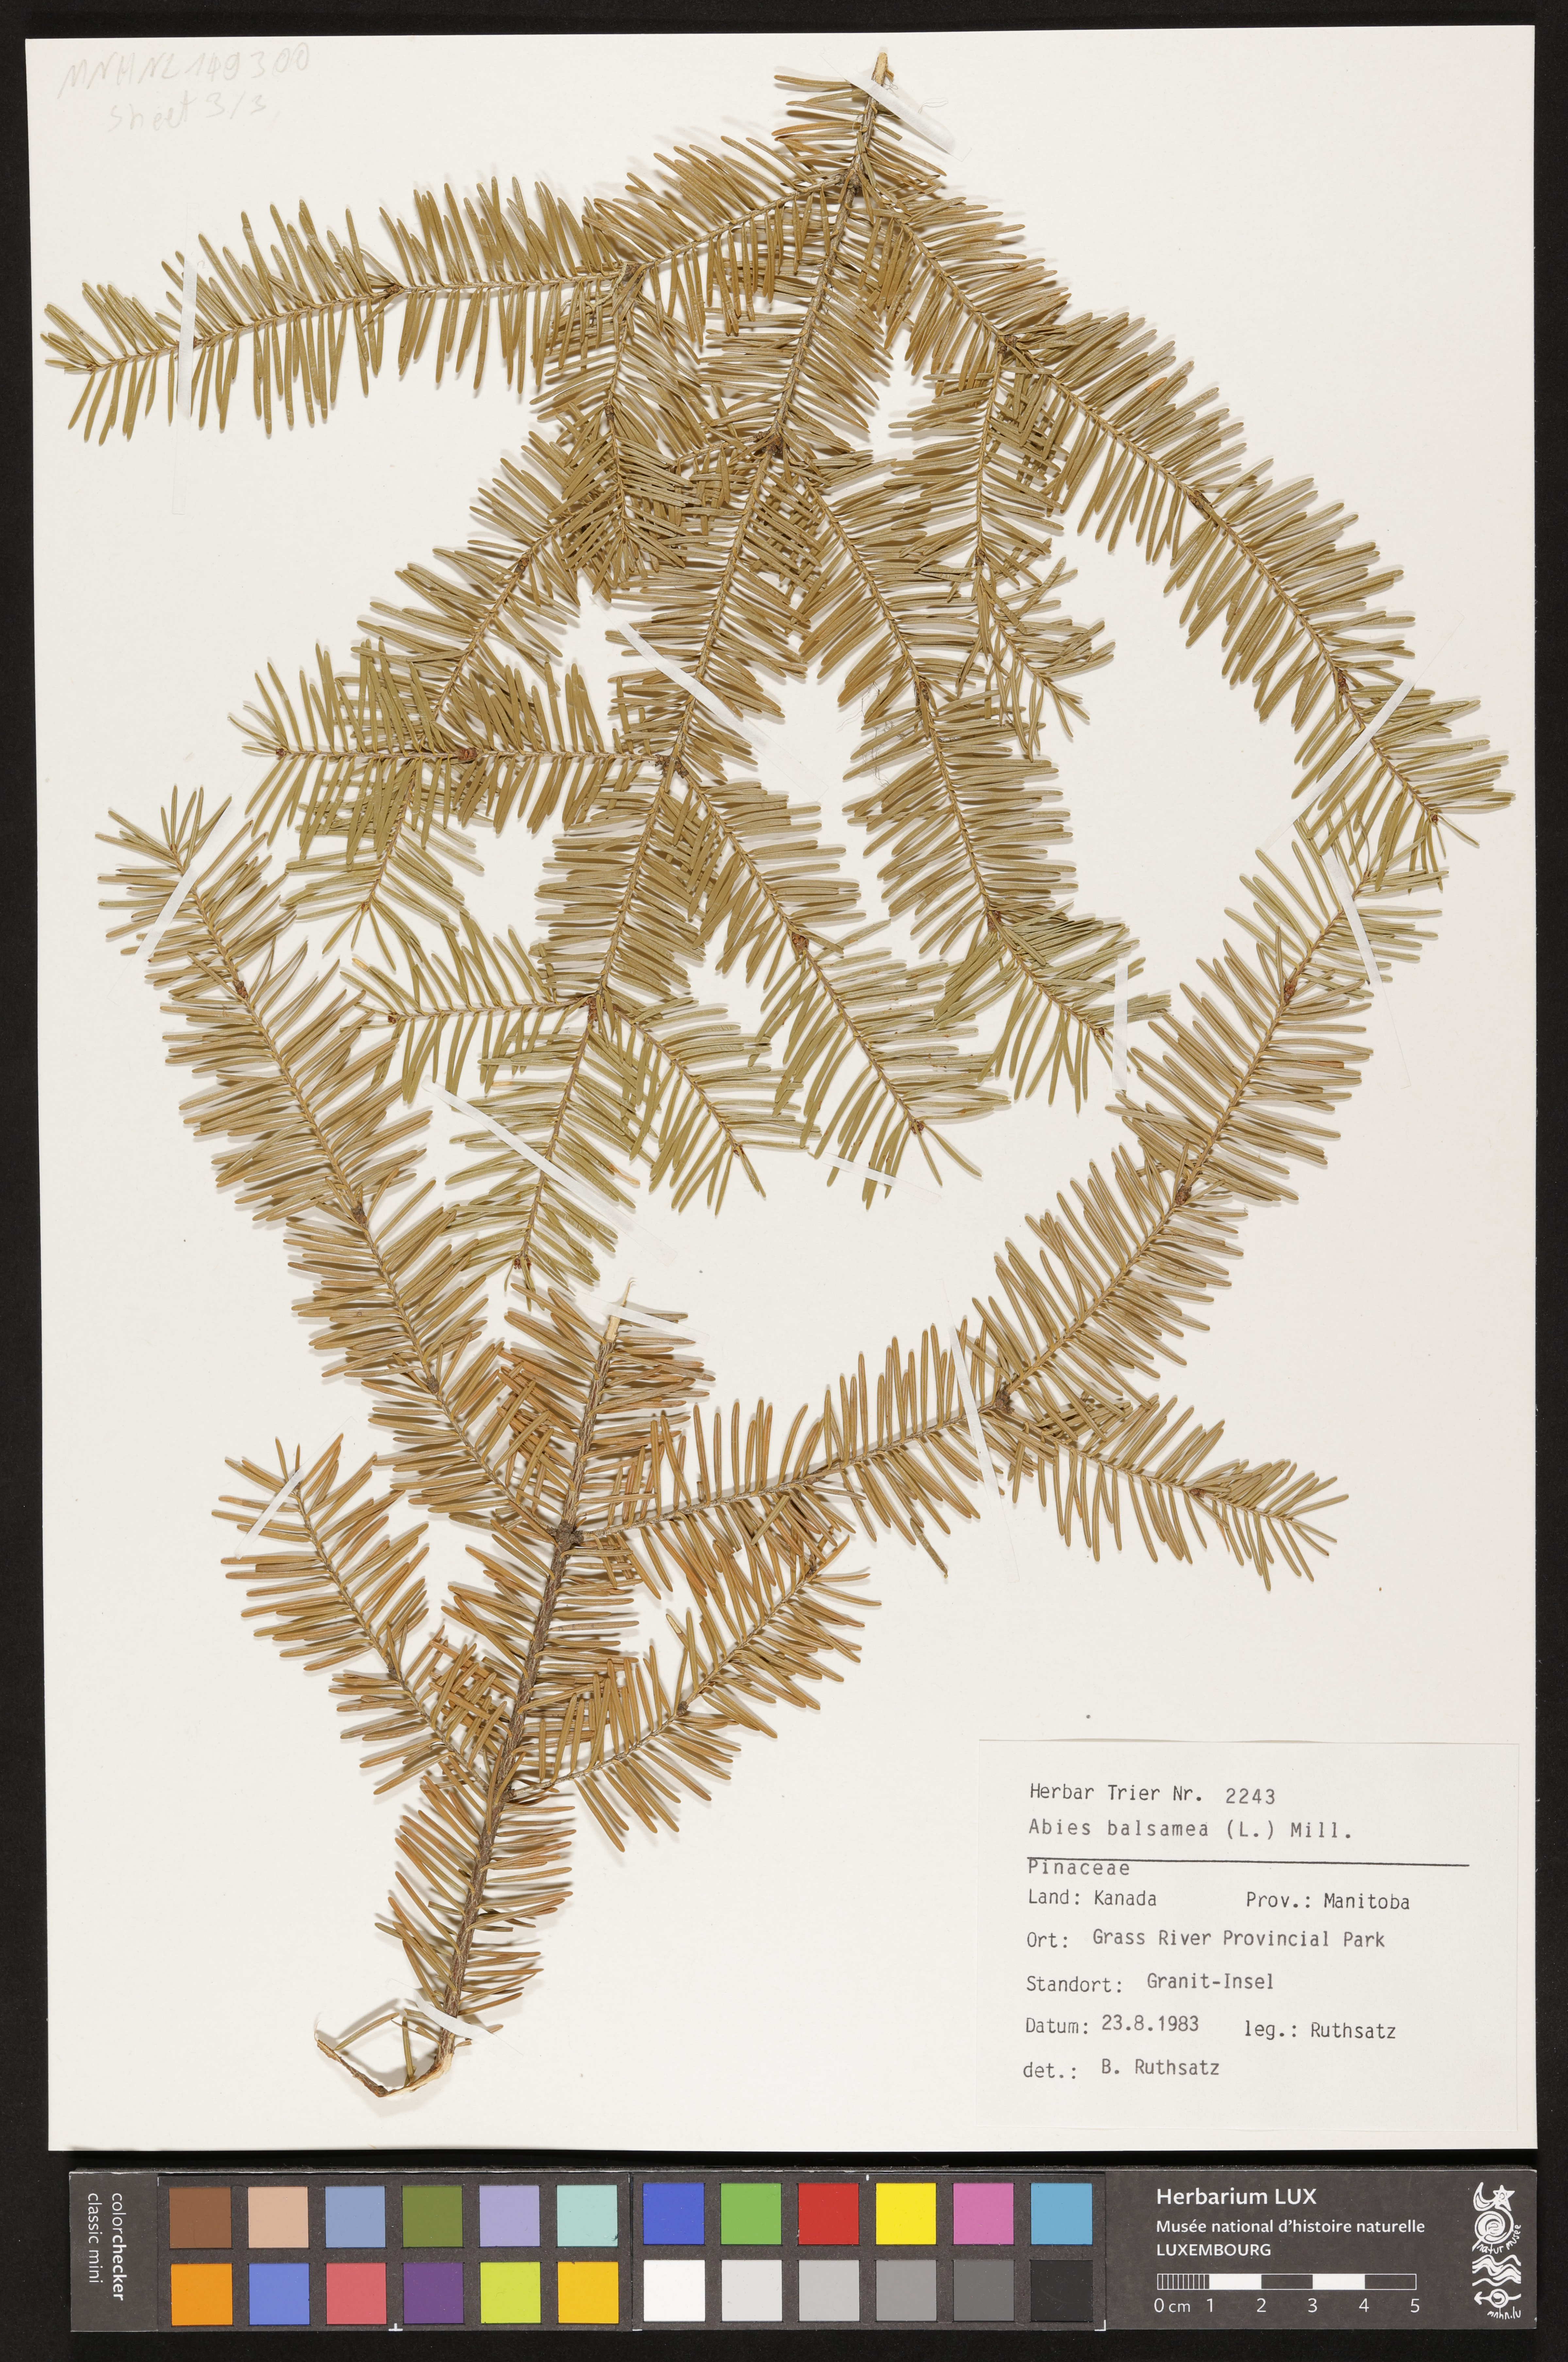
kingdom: Plantae
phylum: Tracheophyta
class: Pinopsida
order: Pinales
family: Pinaceae
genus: Abies
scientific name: Abies balsamea
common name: Balsam fir
